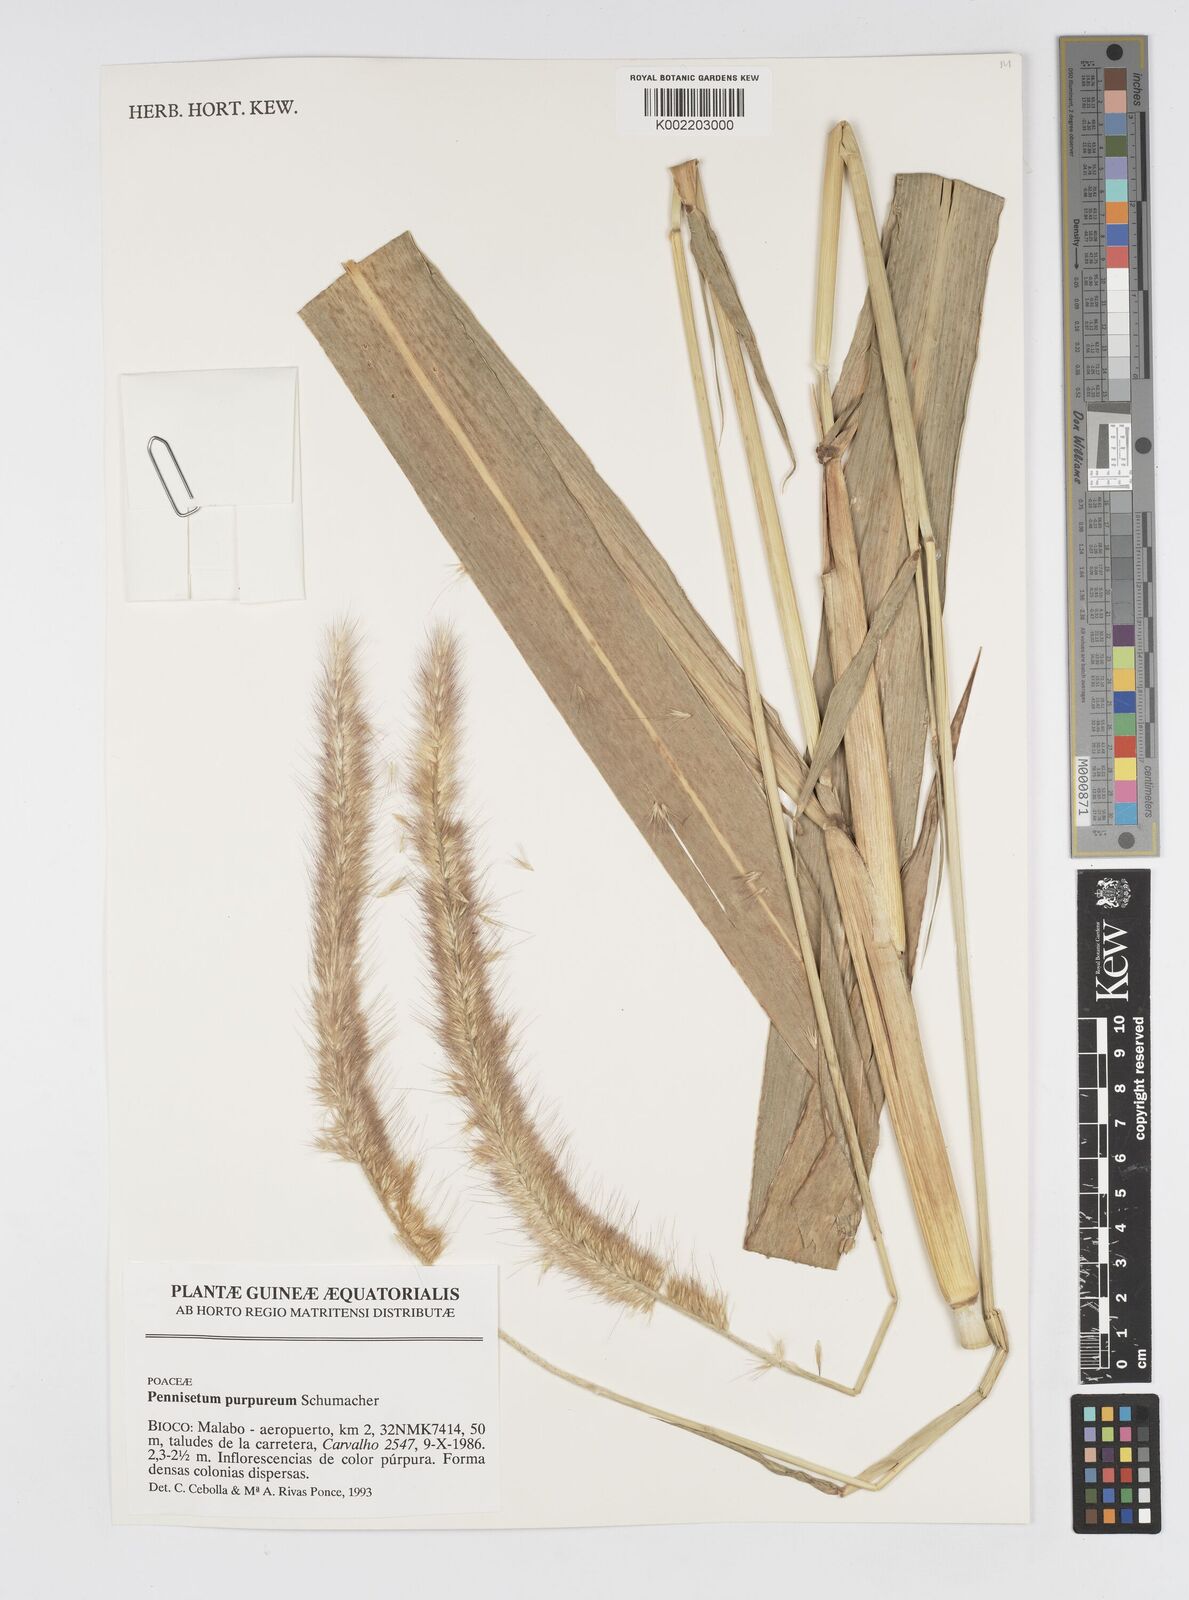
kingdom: Plantae
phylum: Tracheophyta
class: Liliopsida
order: Poales
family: Poaceae
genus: Cenchrus
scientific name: Cenchrus purpureus
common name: Elephant grass
